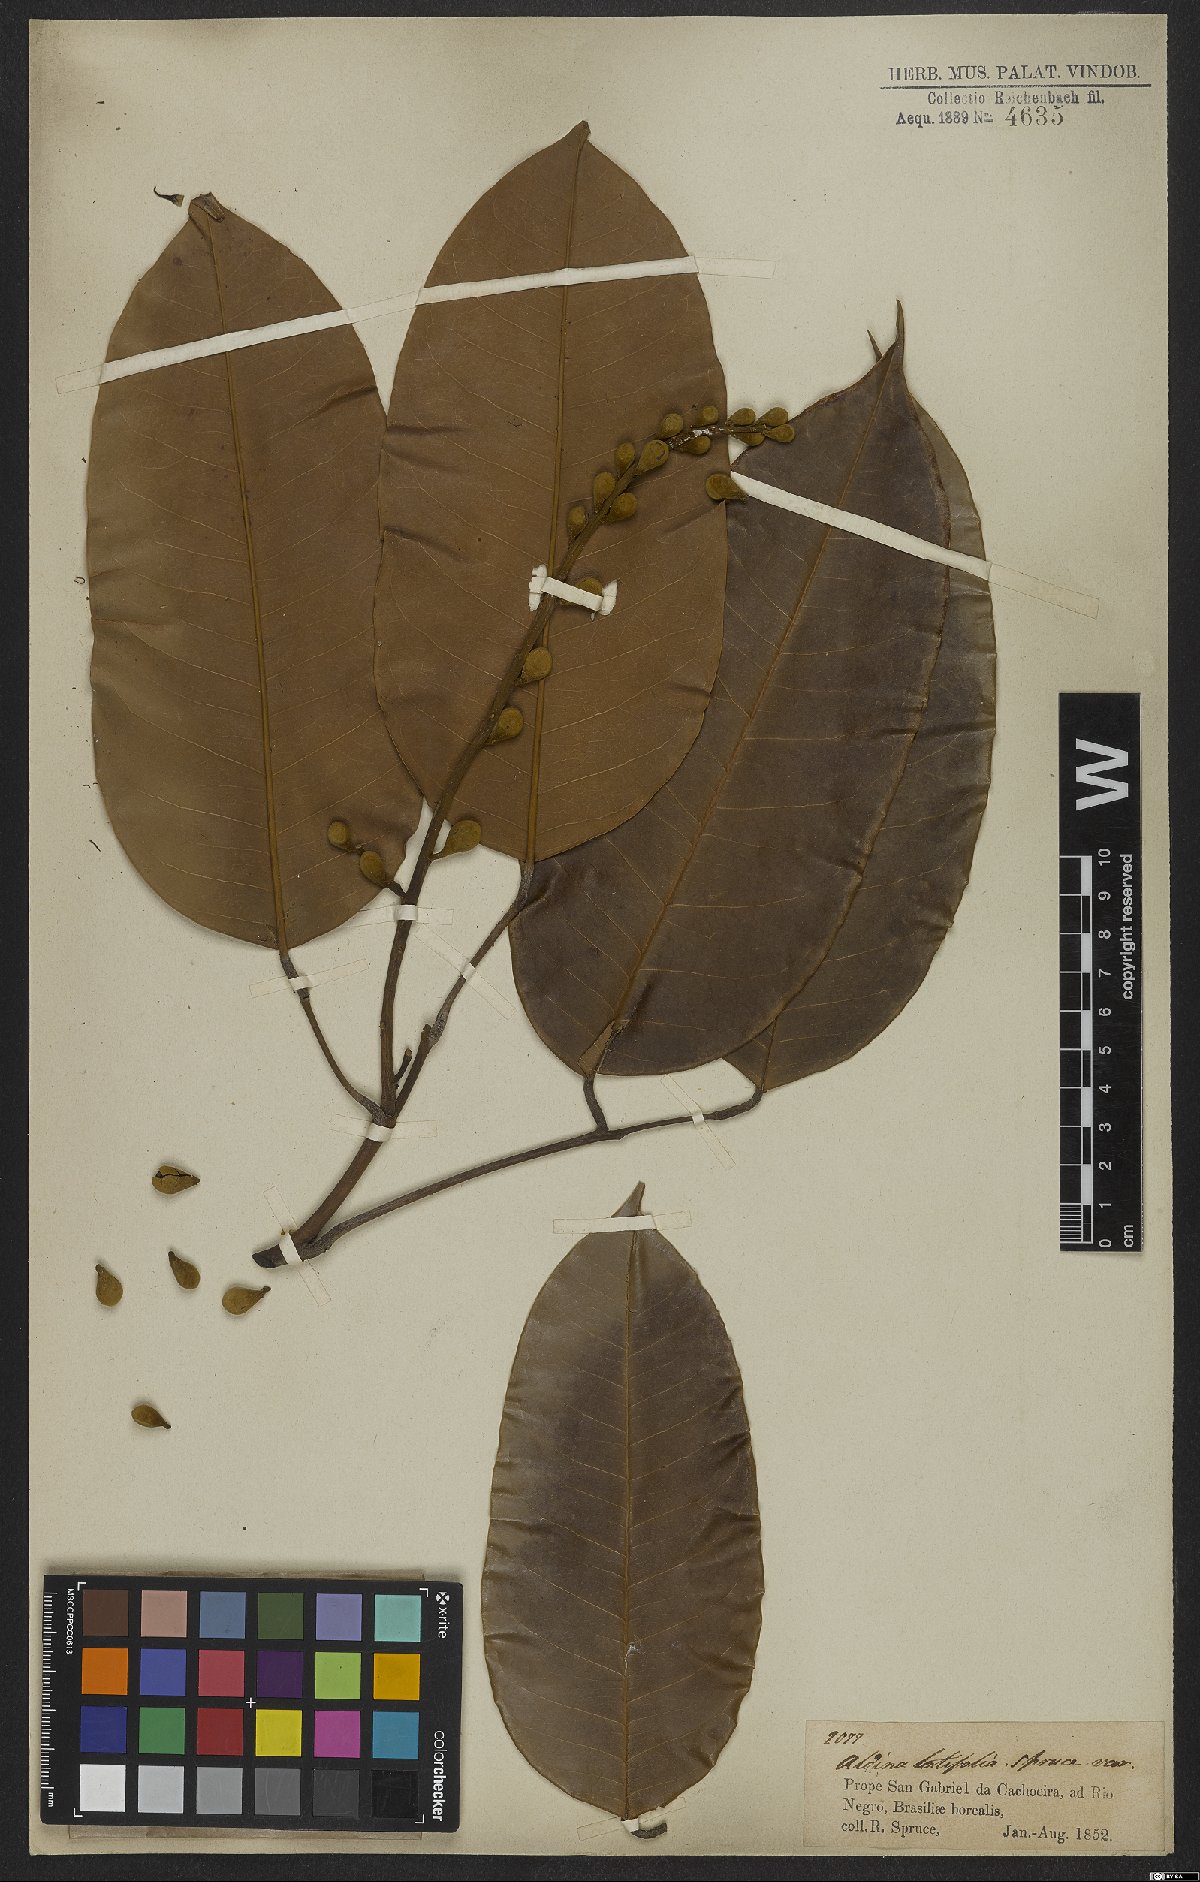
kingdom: Plantae
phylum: Tracheophyta
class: Magnoliopsida
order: Fabales
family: Fabaceae
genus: Aldina
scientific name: Aldina latifolia
